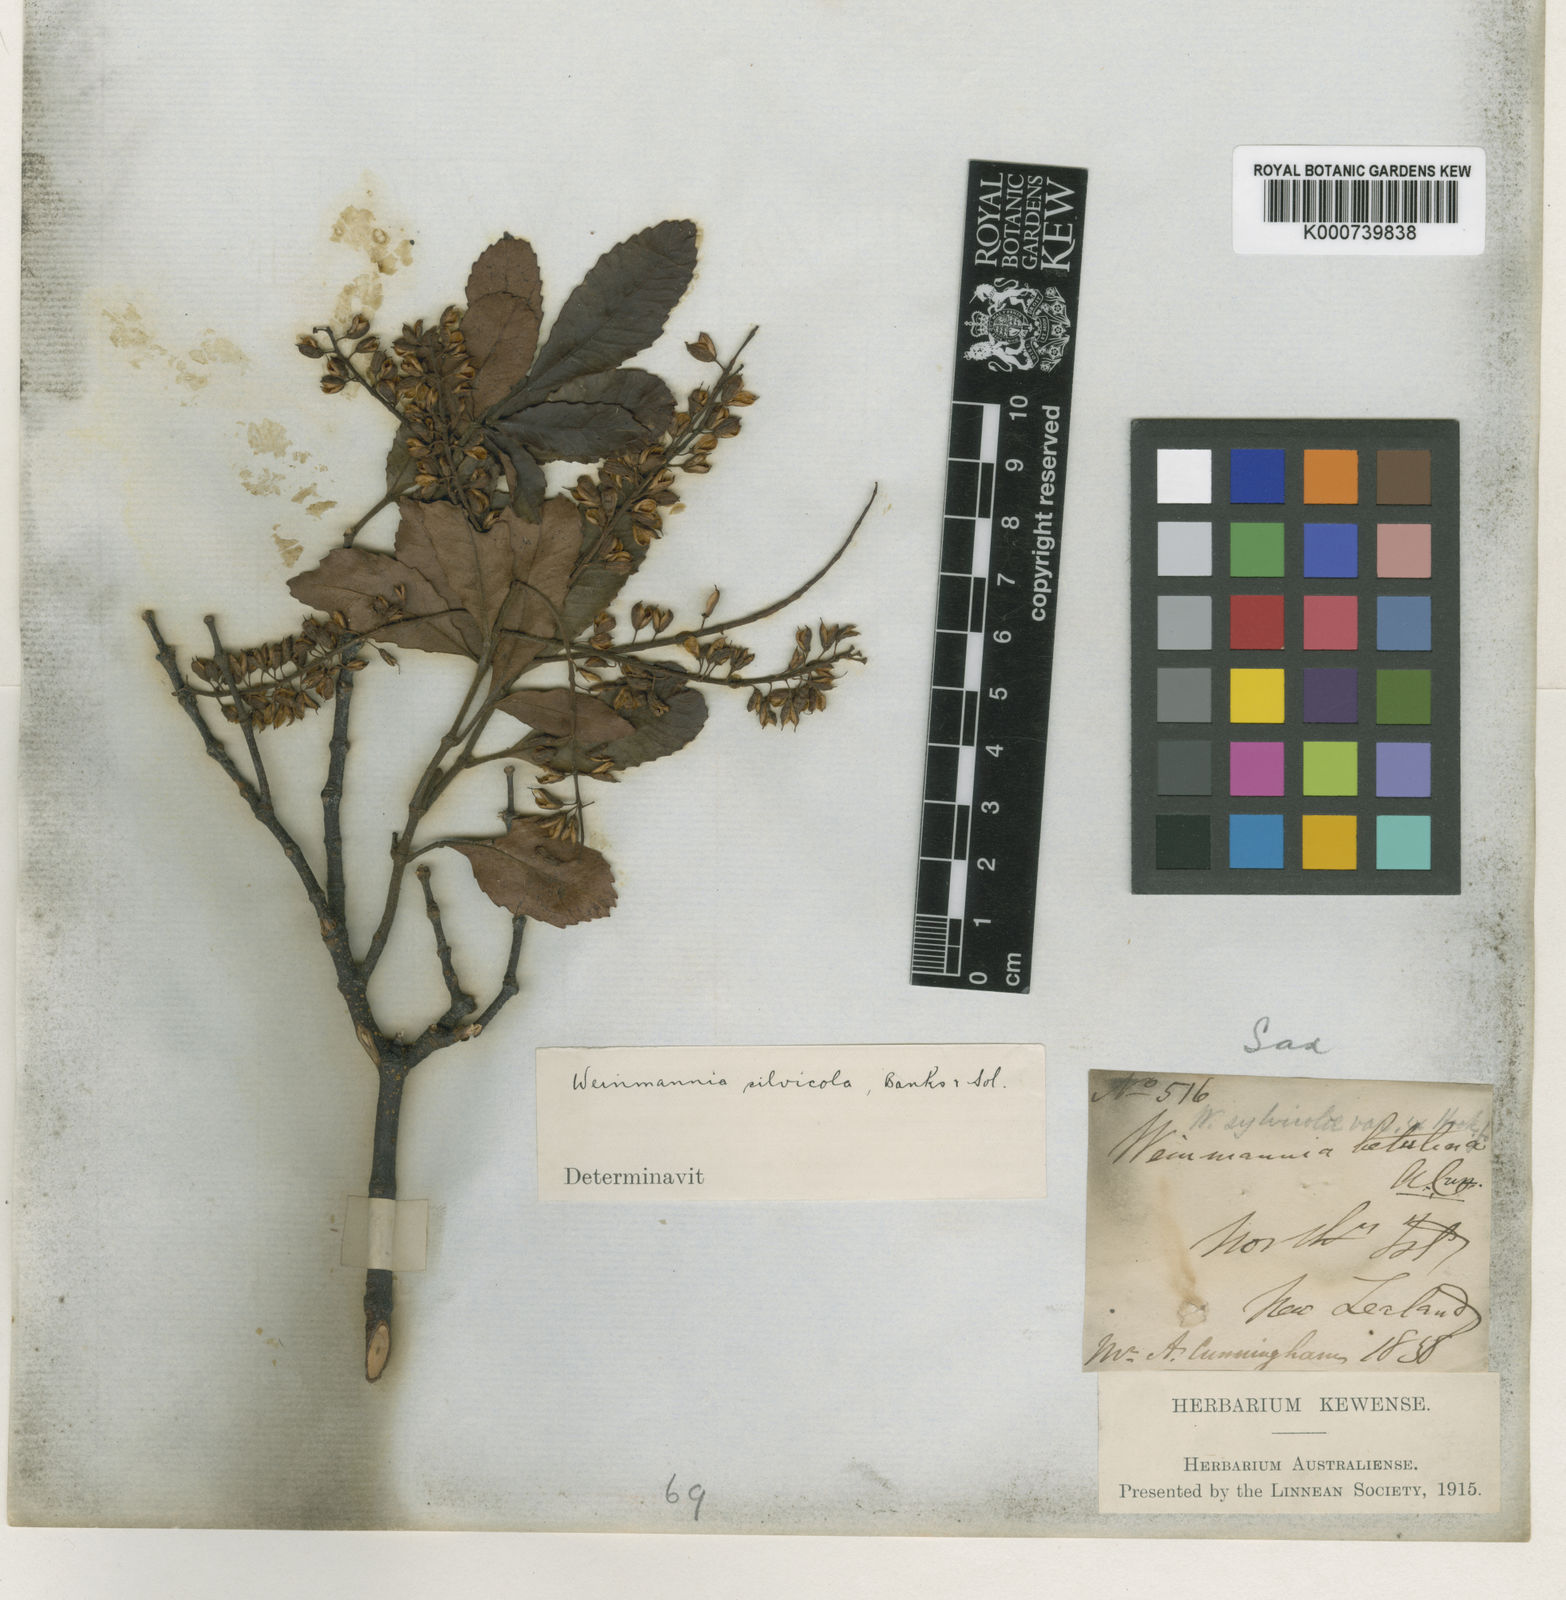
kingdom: Plantae
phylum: Tracheophyta
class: Magnoliopsida
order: Oxalidales
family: Cunoniaceae
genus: Pterophylla
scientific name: Pterophylla sylvicola
